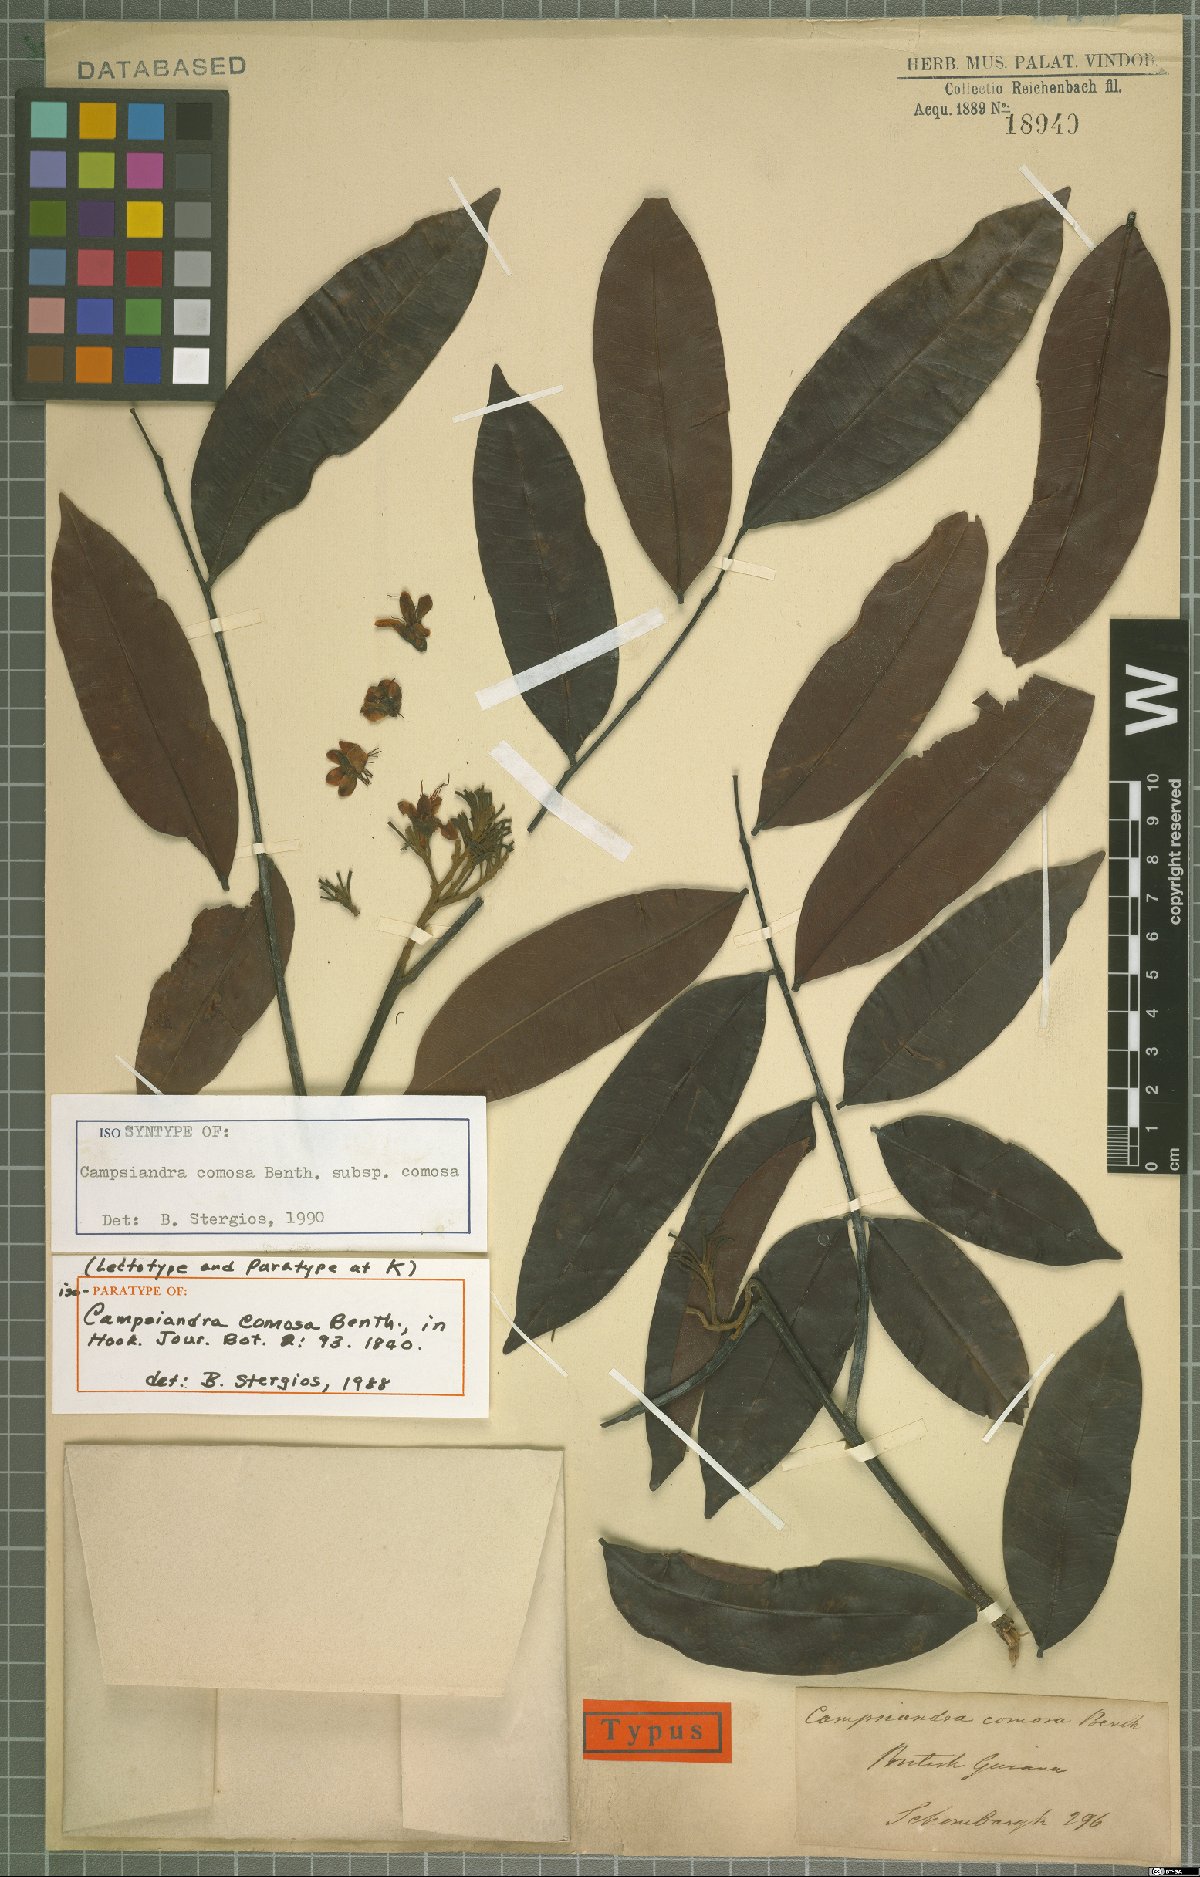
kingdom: Plantae
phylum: Tracheophyta
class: Magnoliopsida
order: Fabales
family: Fabaceae
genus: Campsiandra
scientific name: Campsiandra comosa
